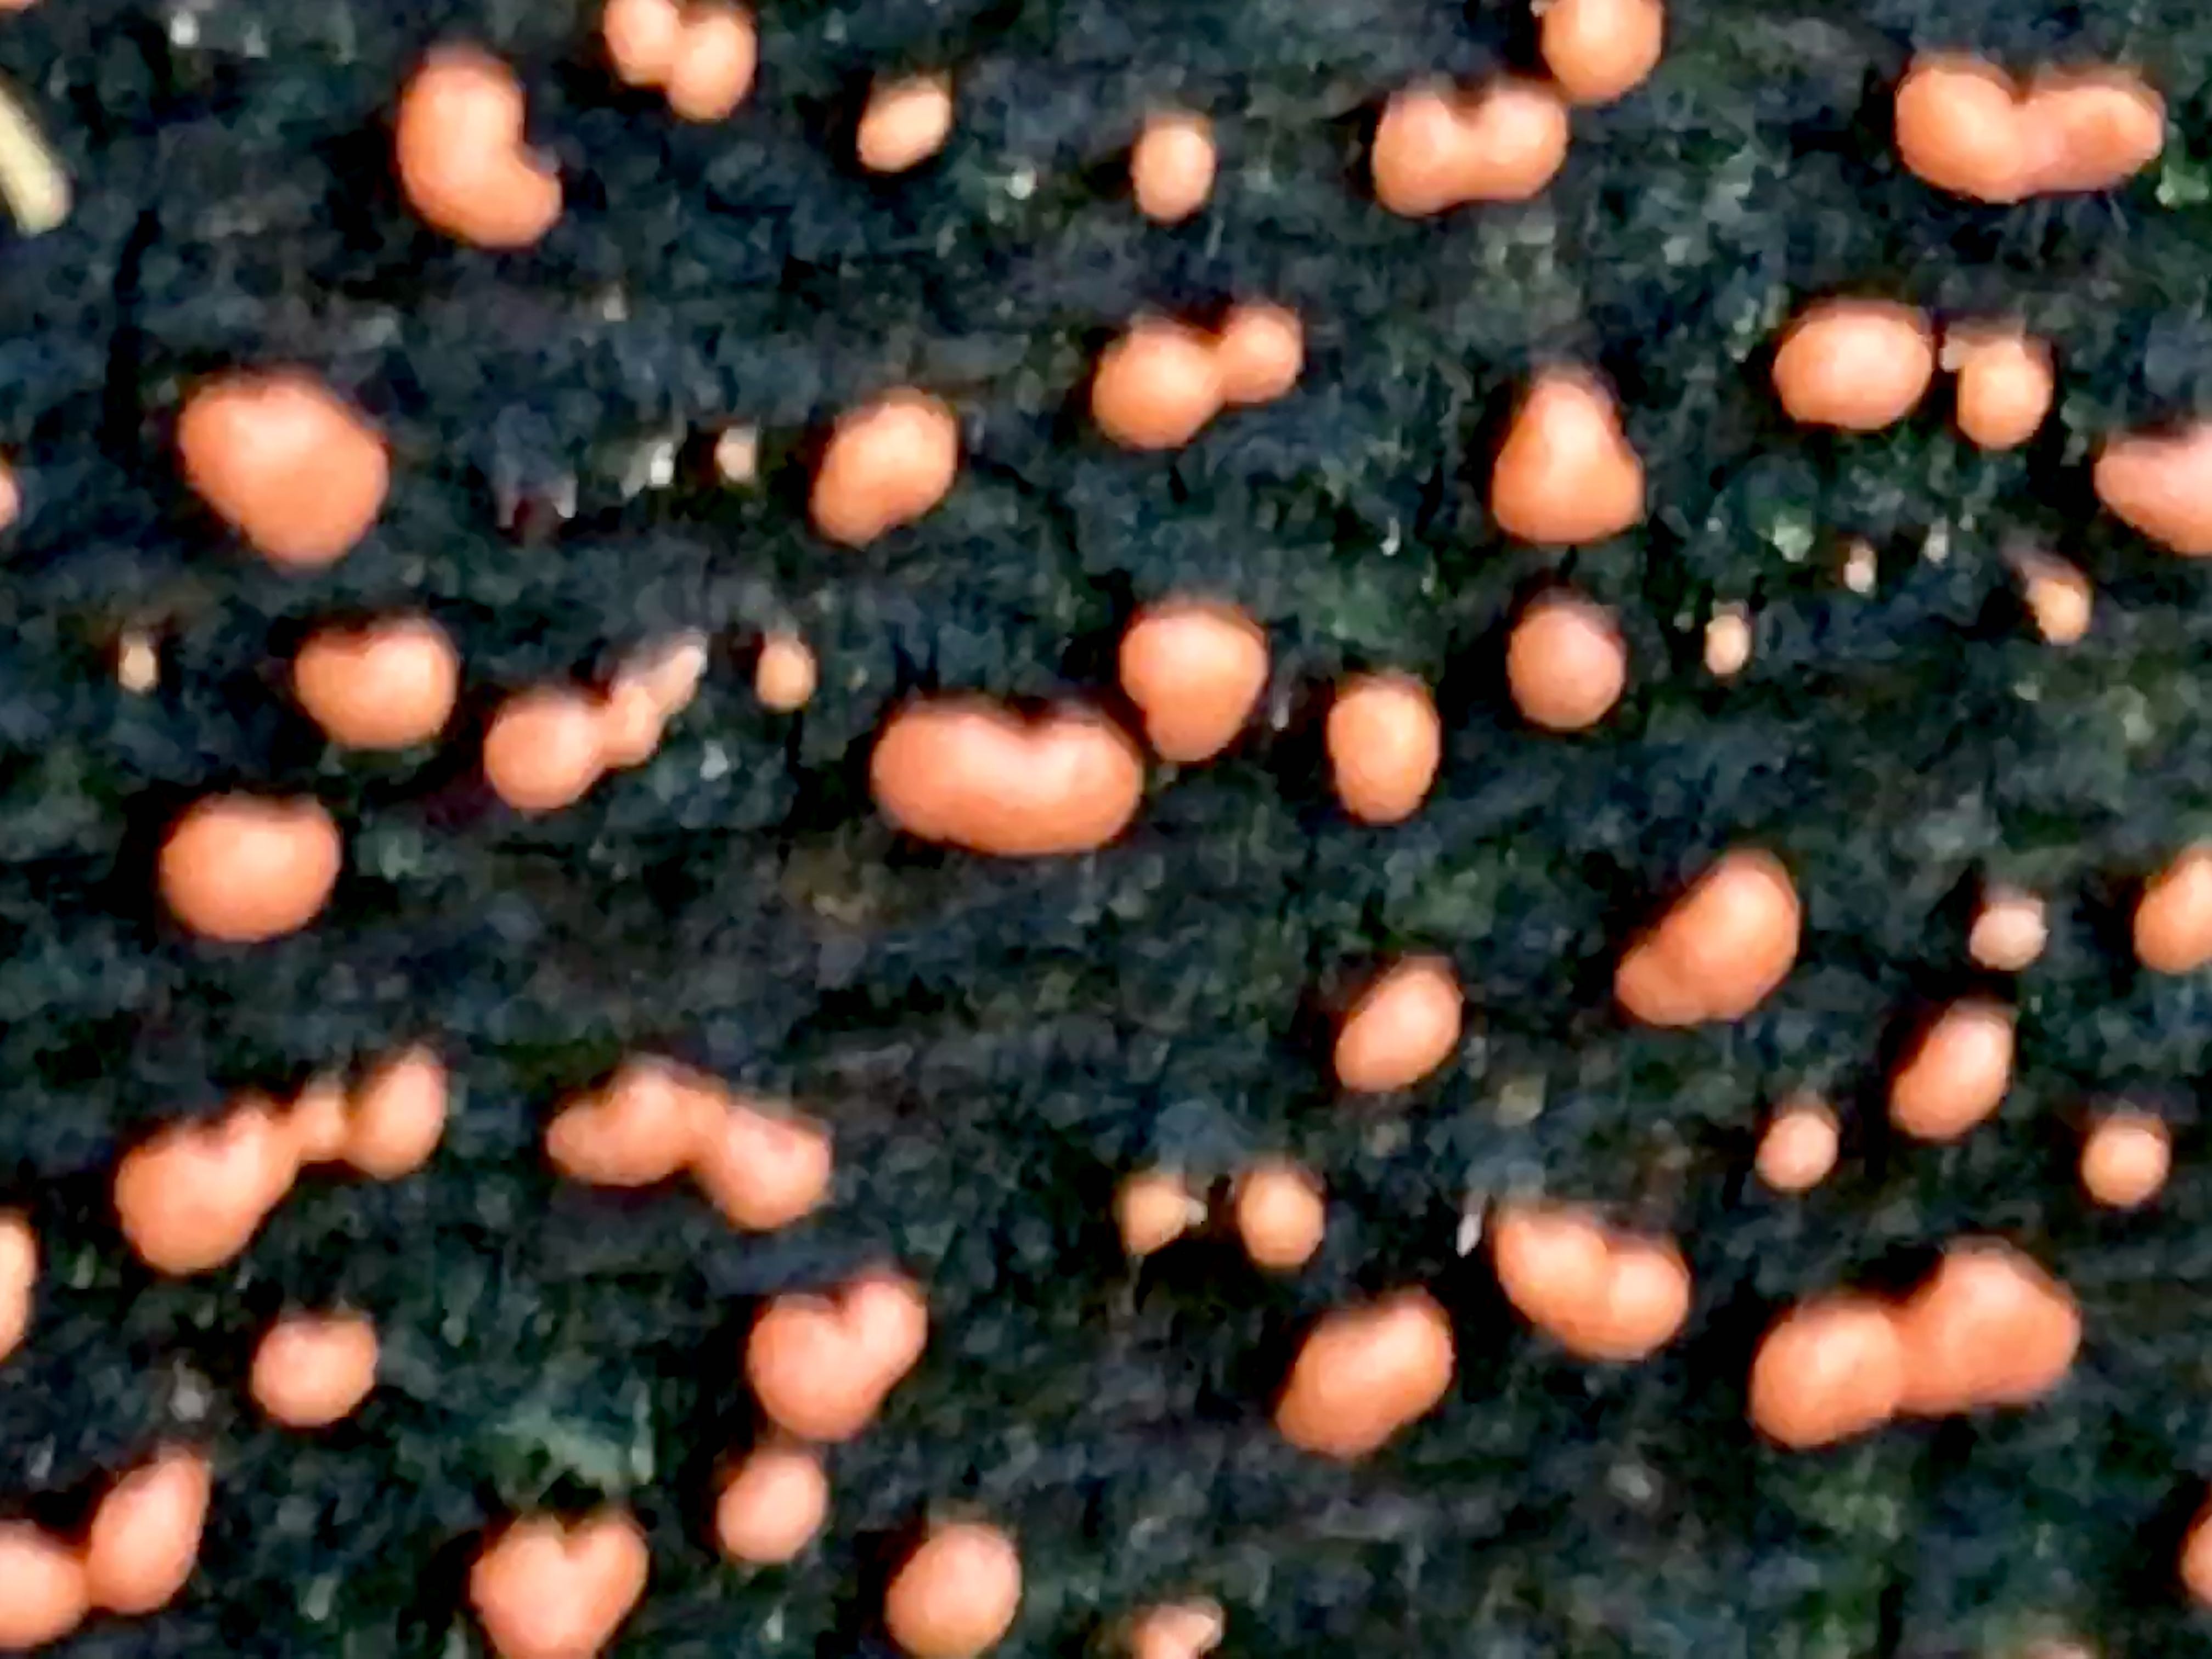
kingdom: Fungi
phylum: Ascomycota
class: Sordariomycetes
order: Hypocreales
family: Nectriaceae
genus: Nectria
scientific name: Nectria cinnabarina
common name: almindelig cinnobersvamp
